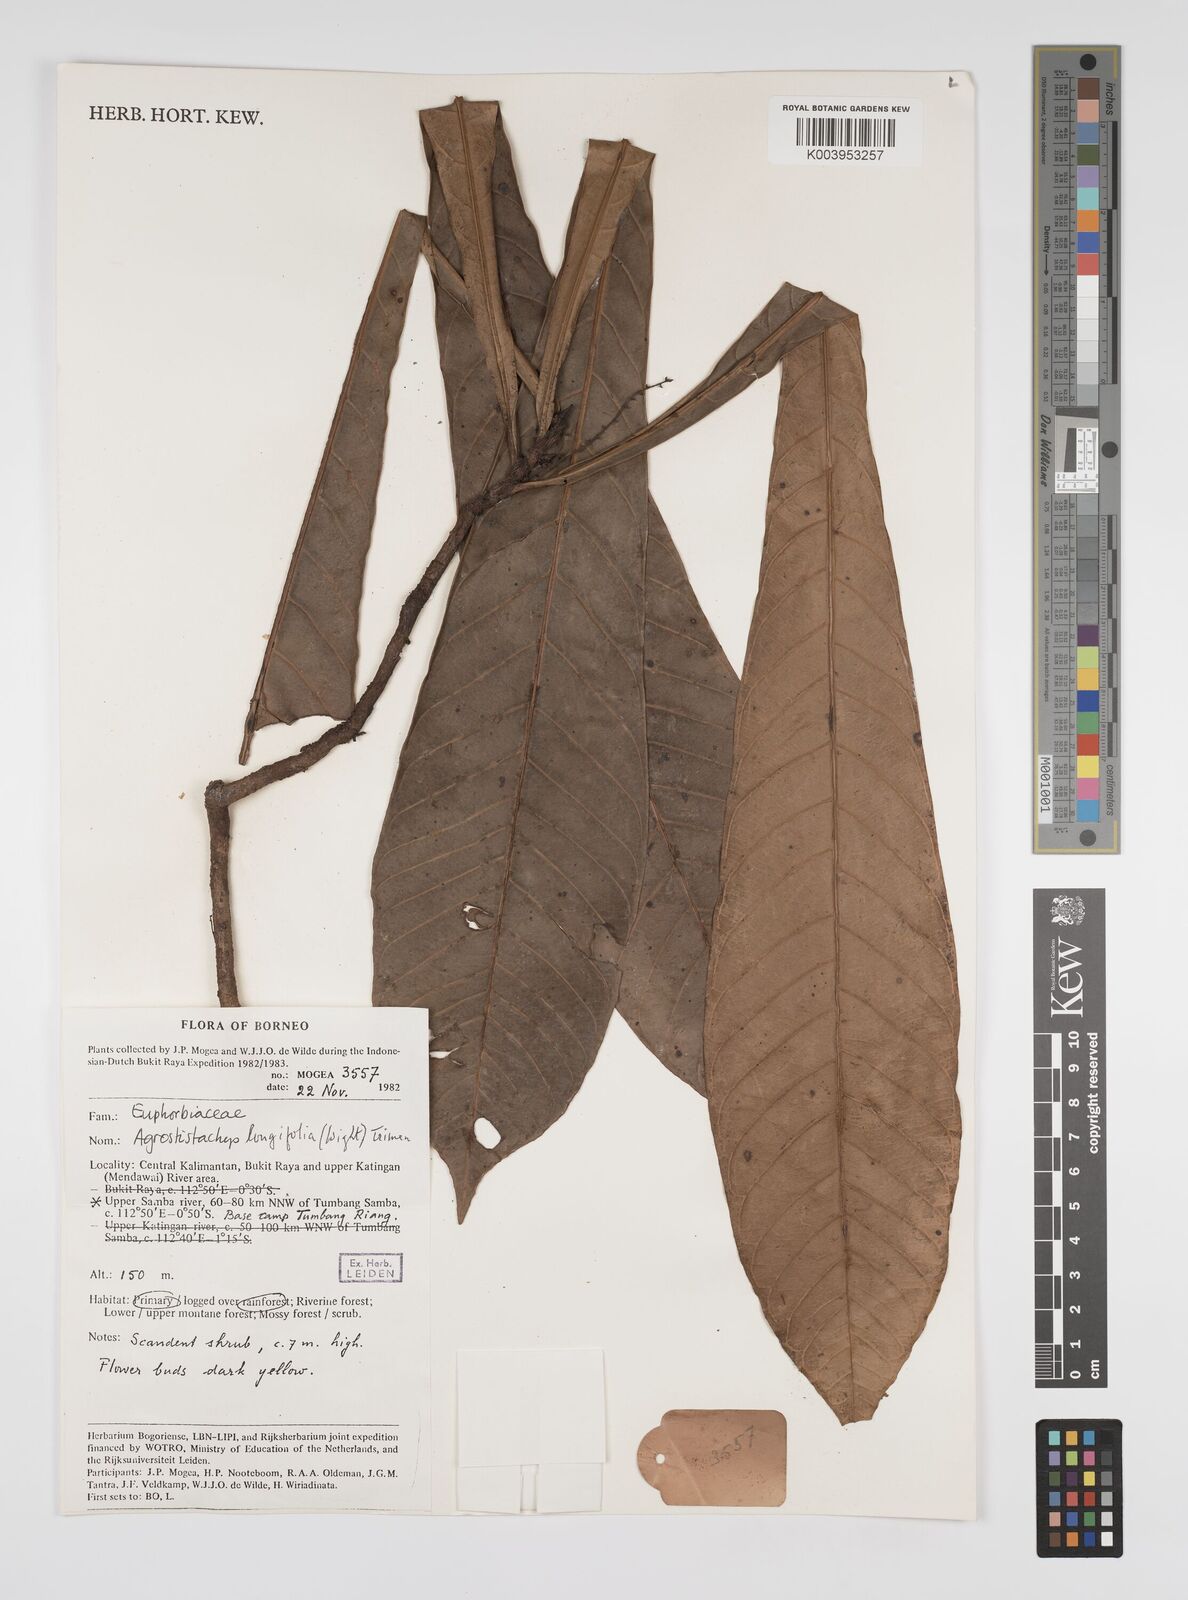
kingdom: Plantae
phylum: Tracheophyta
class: Magnoliopsida
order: Malpighiales
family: Euphorbiaceae
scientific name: Euphorbiaceae
